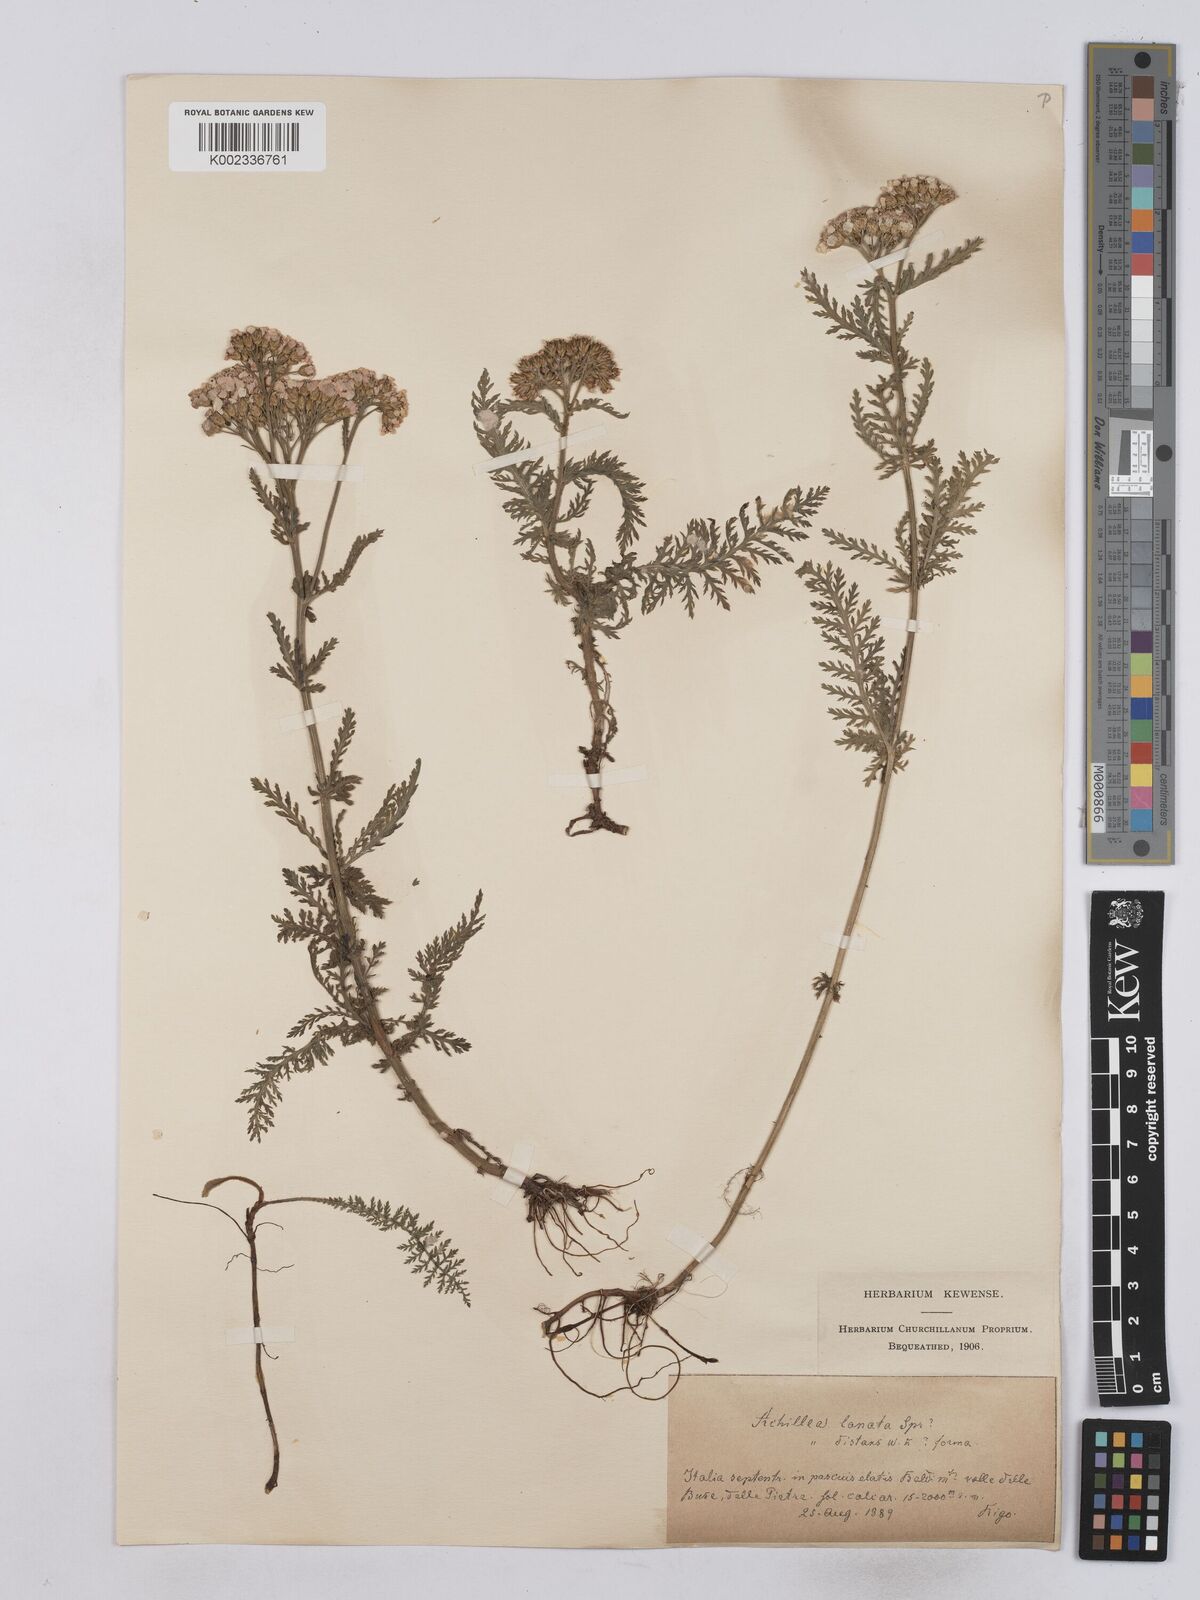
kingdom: Plantae
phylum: Tracheophyta
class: Magnoliopsida
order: Asterales
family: Asteraceae
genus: Achillea
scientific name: Achillea setacea
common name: Bristly yarrow
